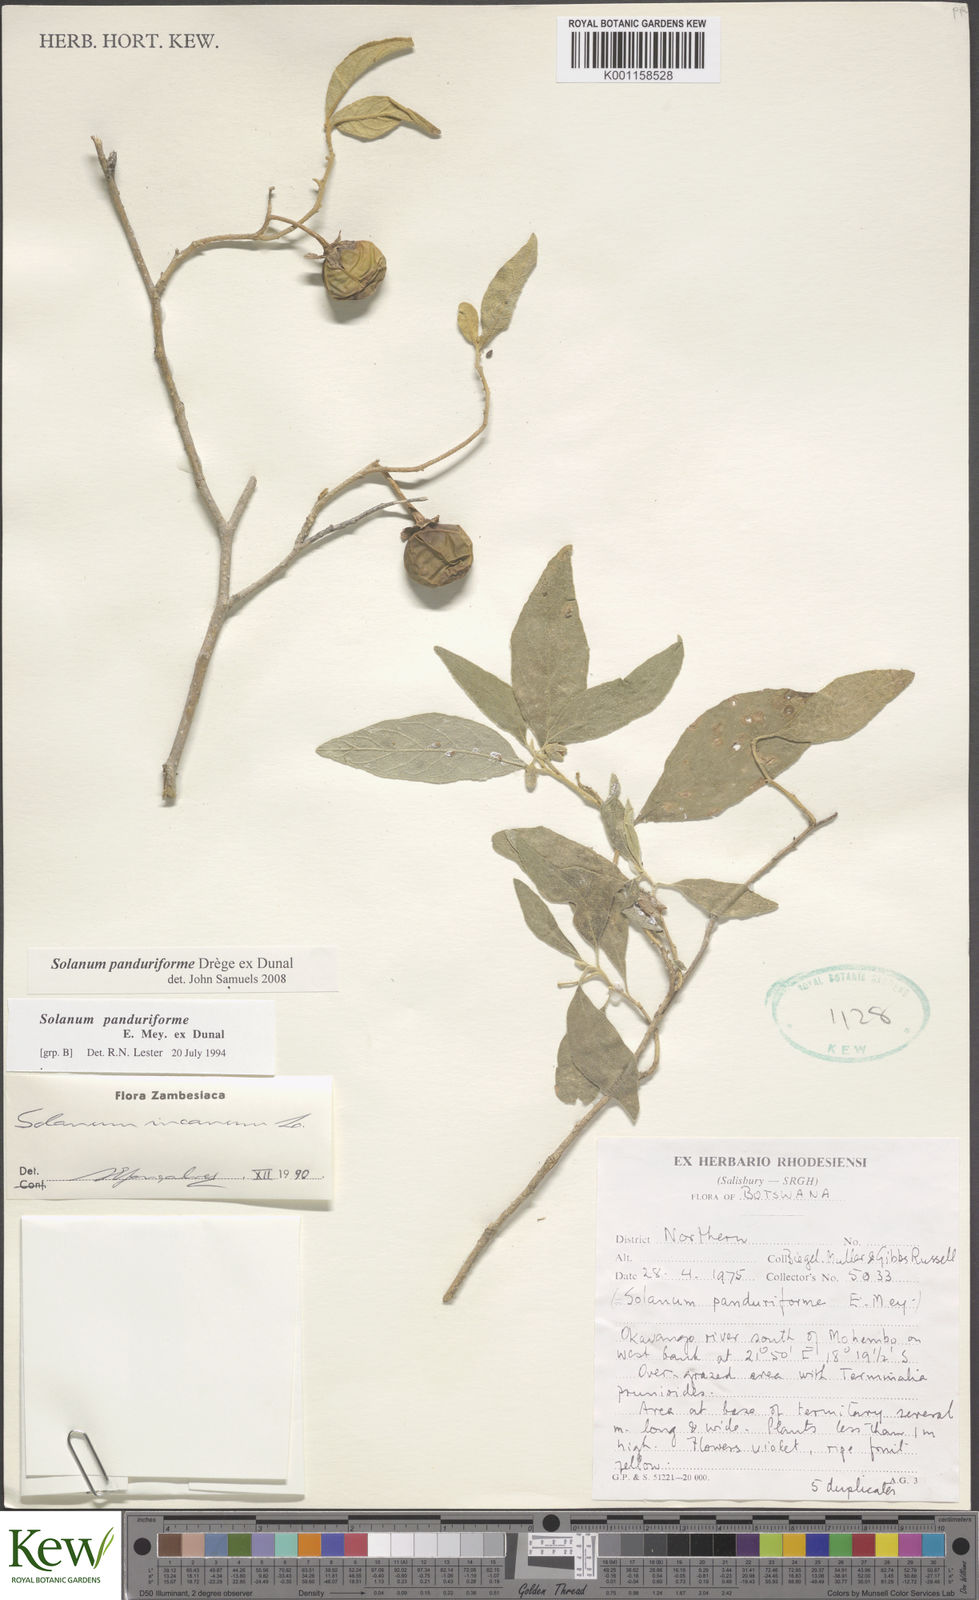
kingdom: Plantae
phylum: Tracheophyta
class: Magnoliopsida
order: Solanales
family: Solanaceae
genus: Solanum
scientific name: Solanum campylacanthum
